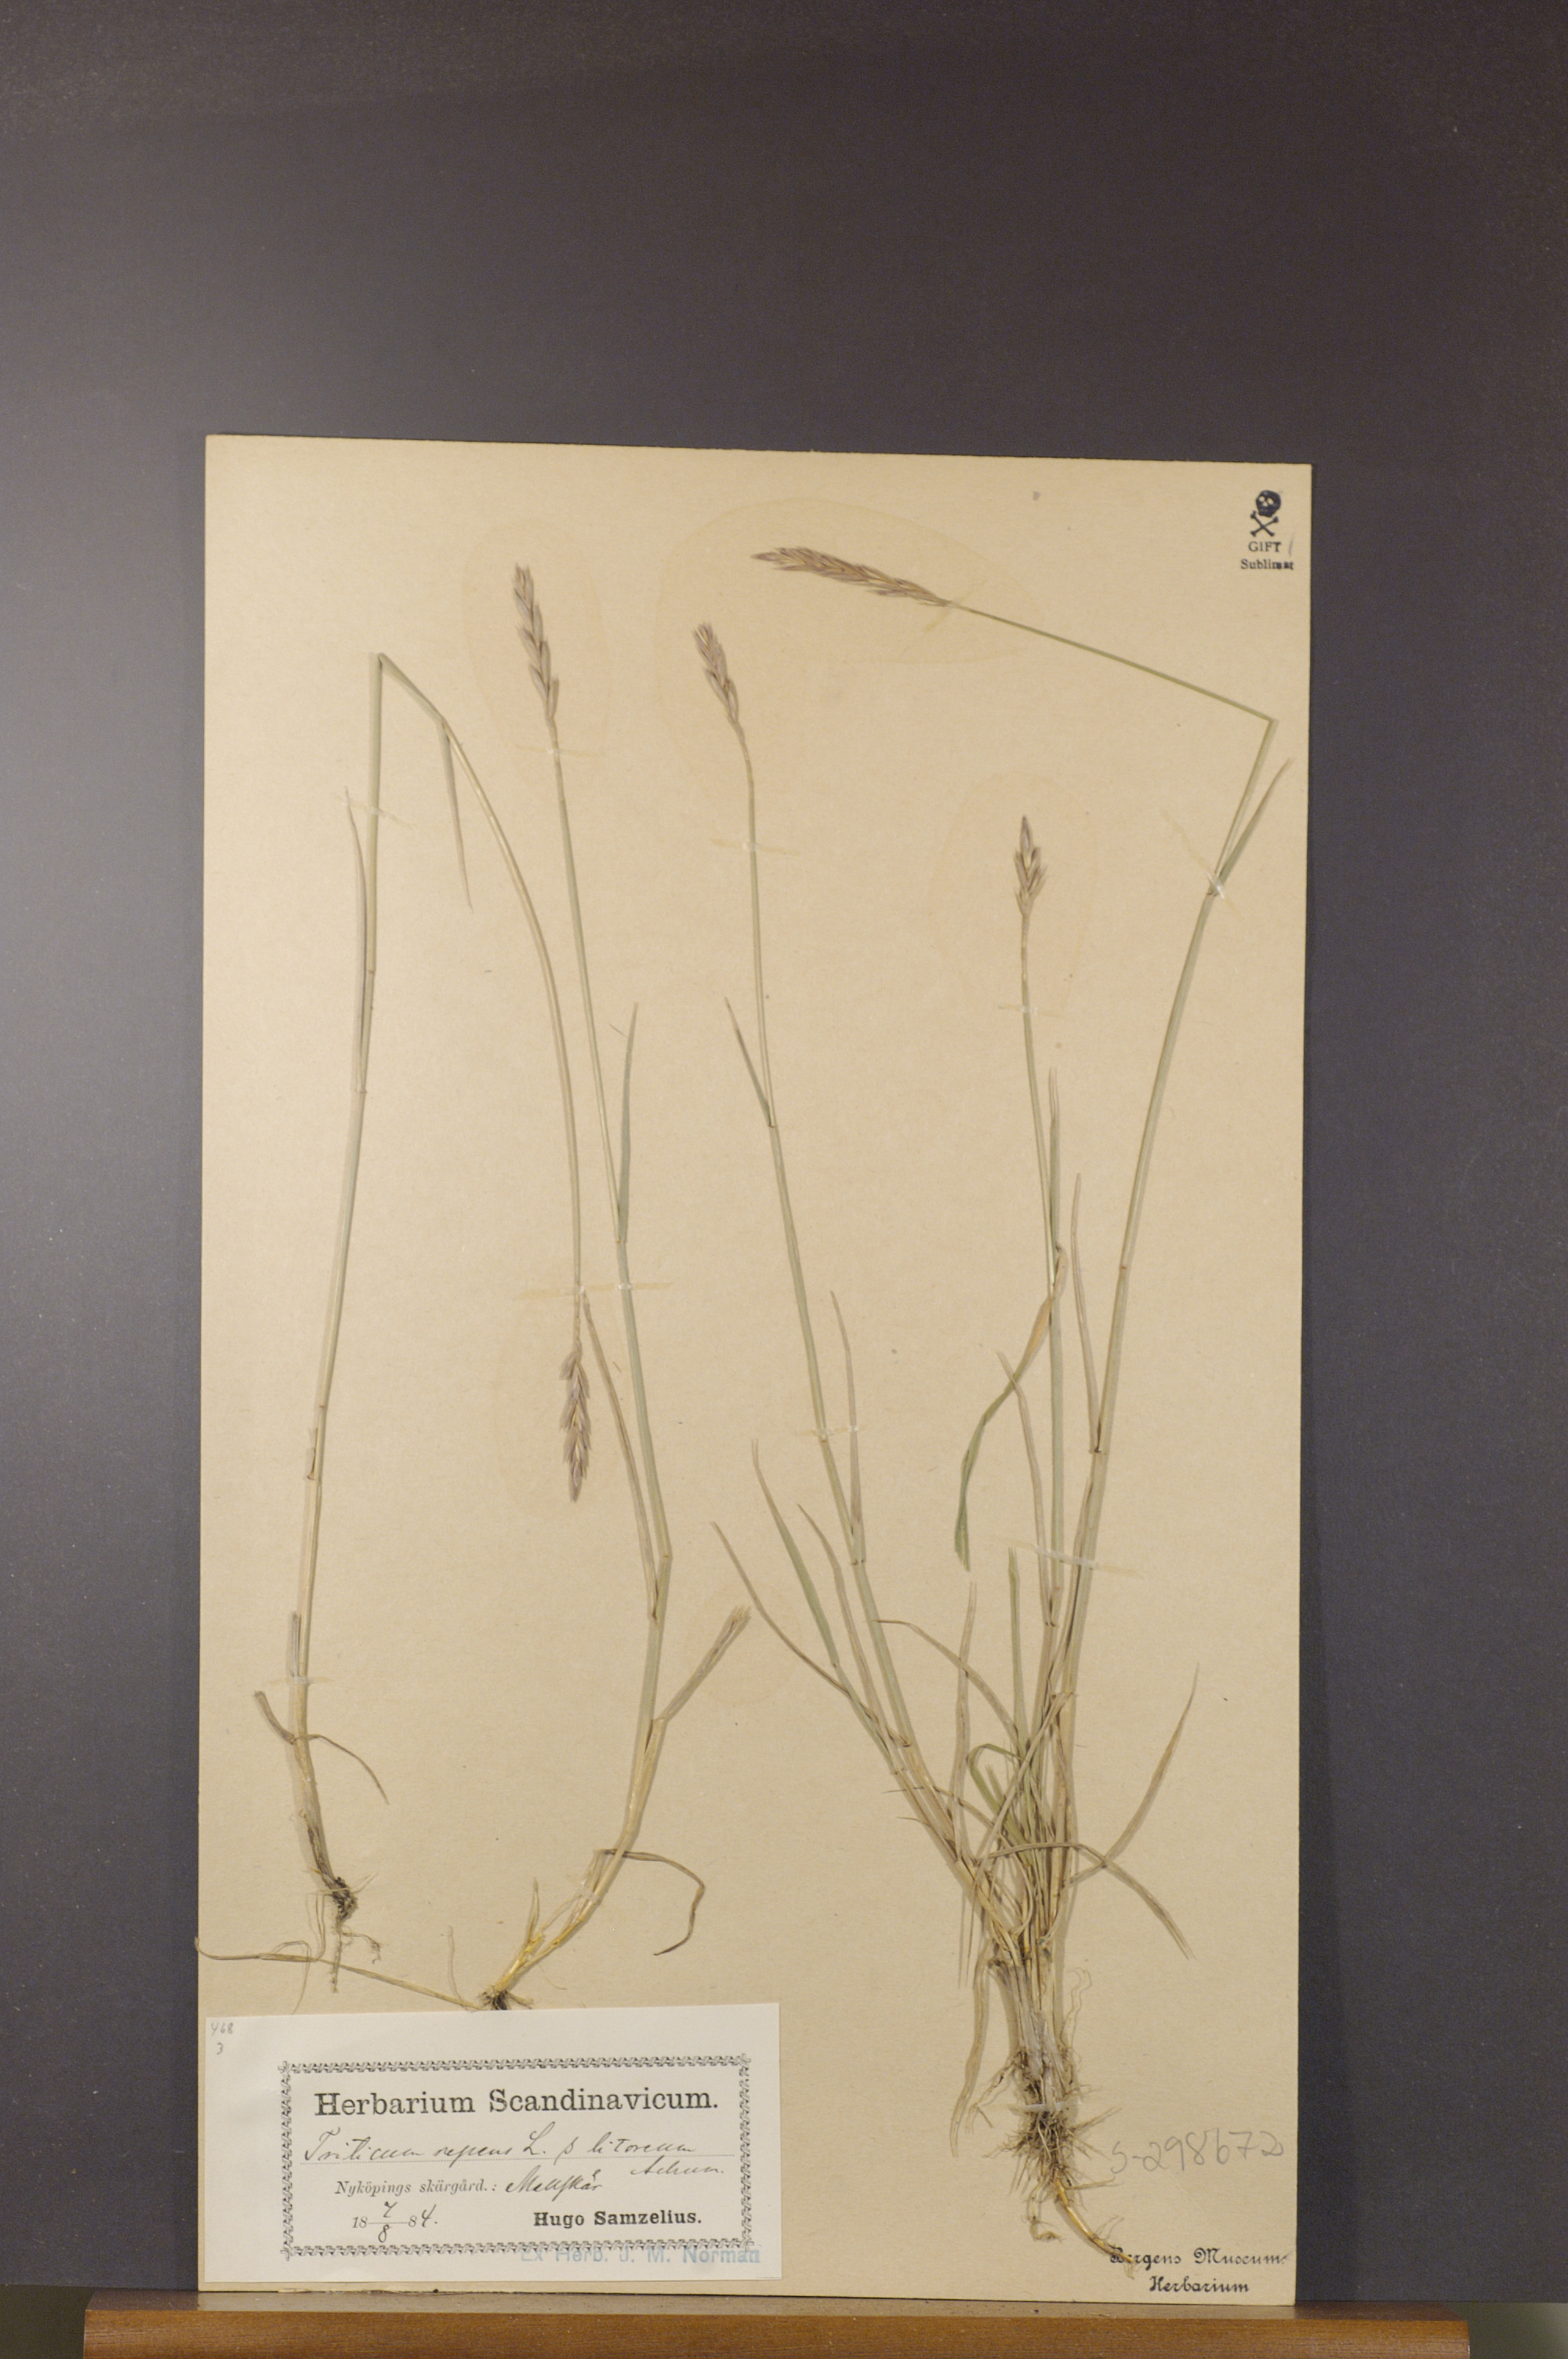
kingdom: Plantae
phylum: Tracheophyta
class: Liliopsida
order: Poales
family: Poaceae
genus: Elymus
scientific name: Elymus repens
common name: Quackgrass
